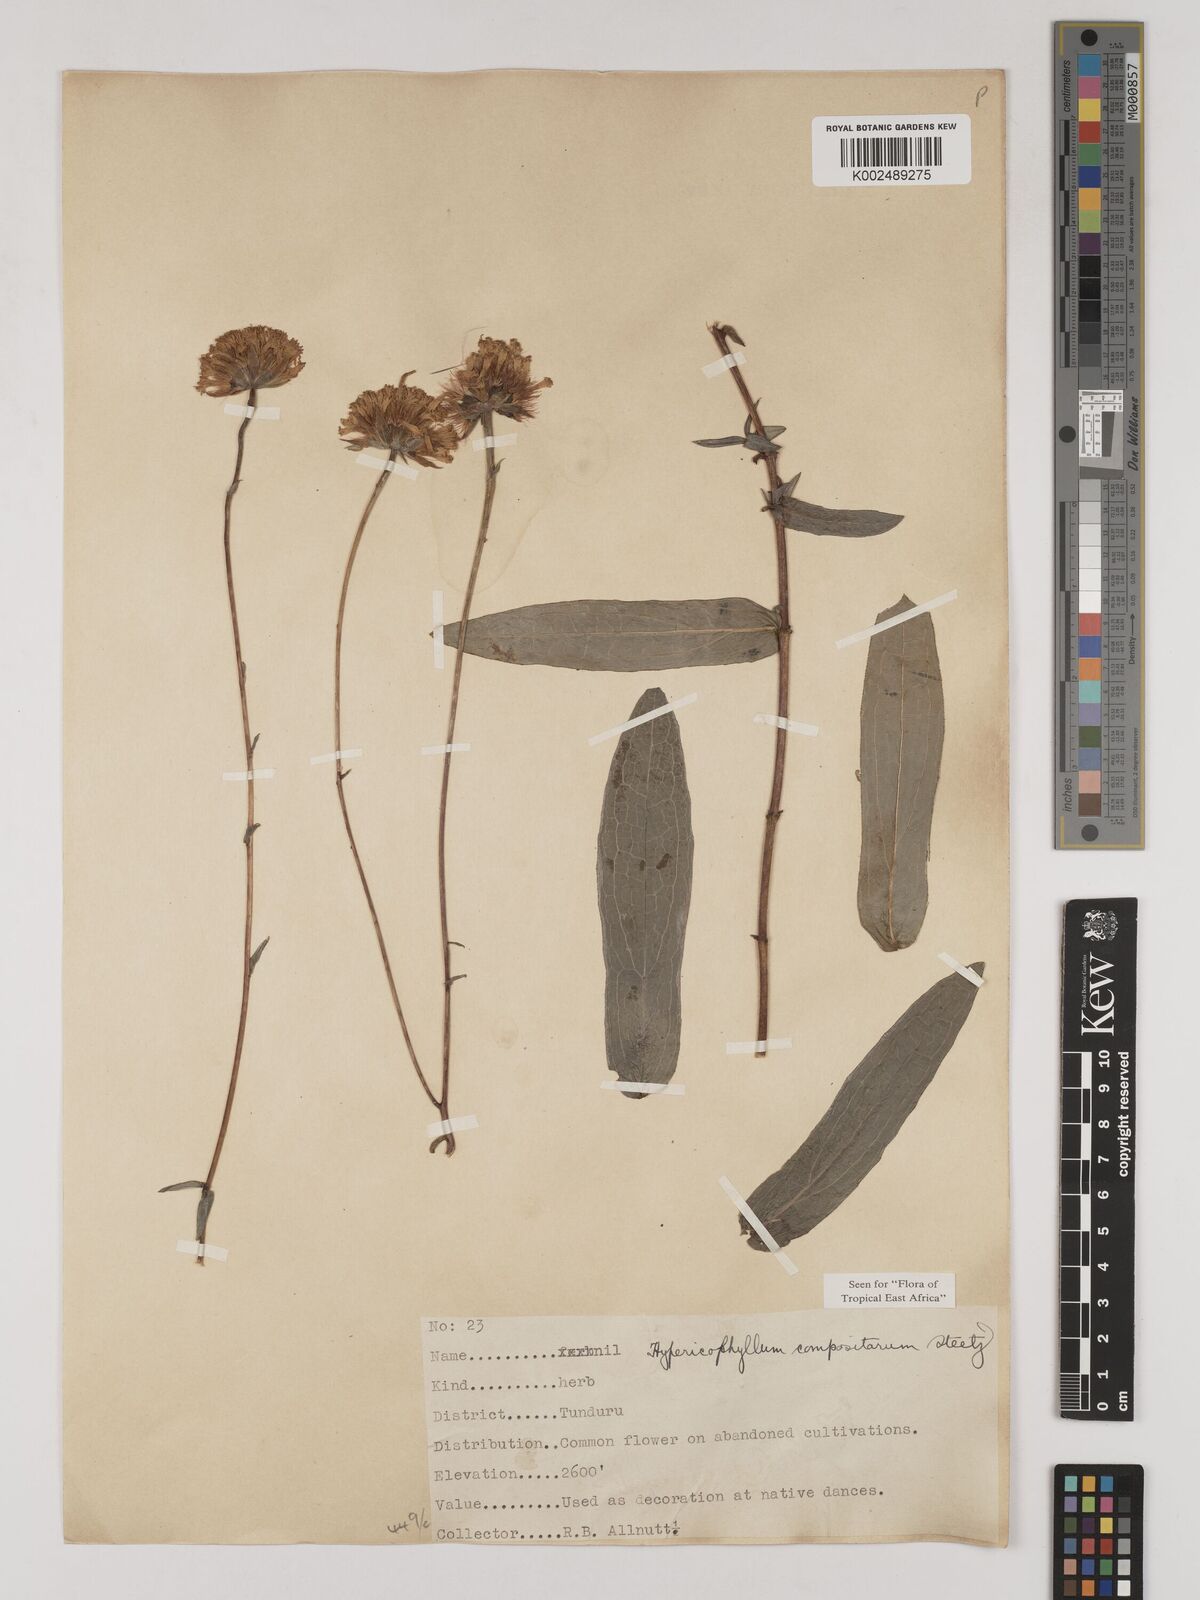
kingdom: Plantae
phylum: Tracheophyta
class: Magnoliopsida
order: Asterales
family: Asteraceae
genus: Hypericophyllum
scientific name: Hypericophyllum compositarum
